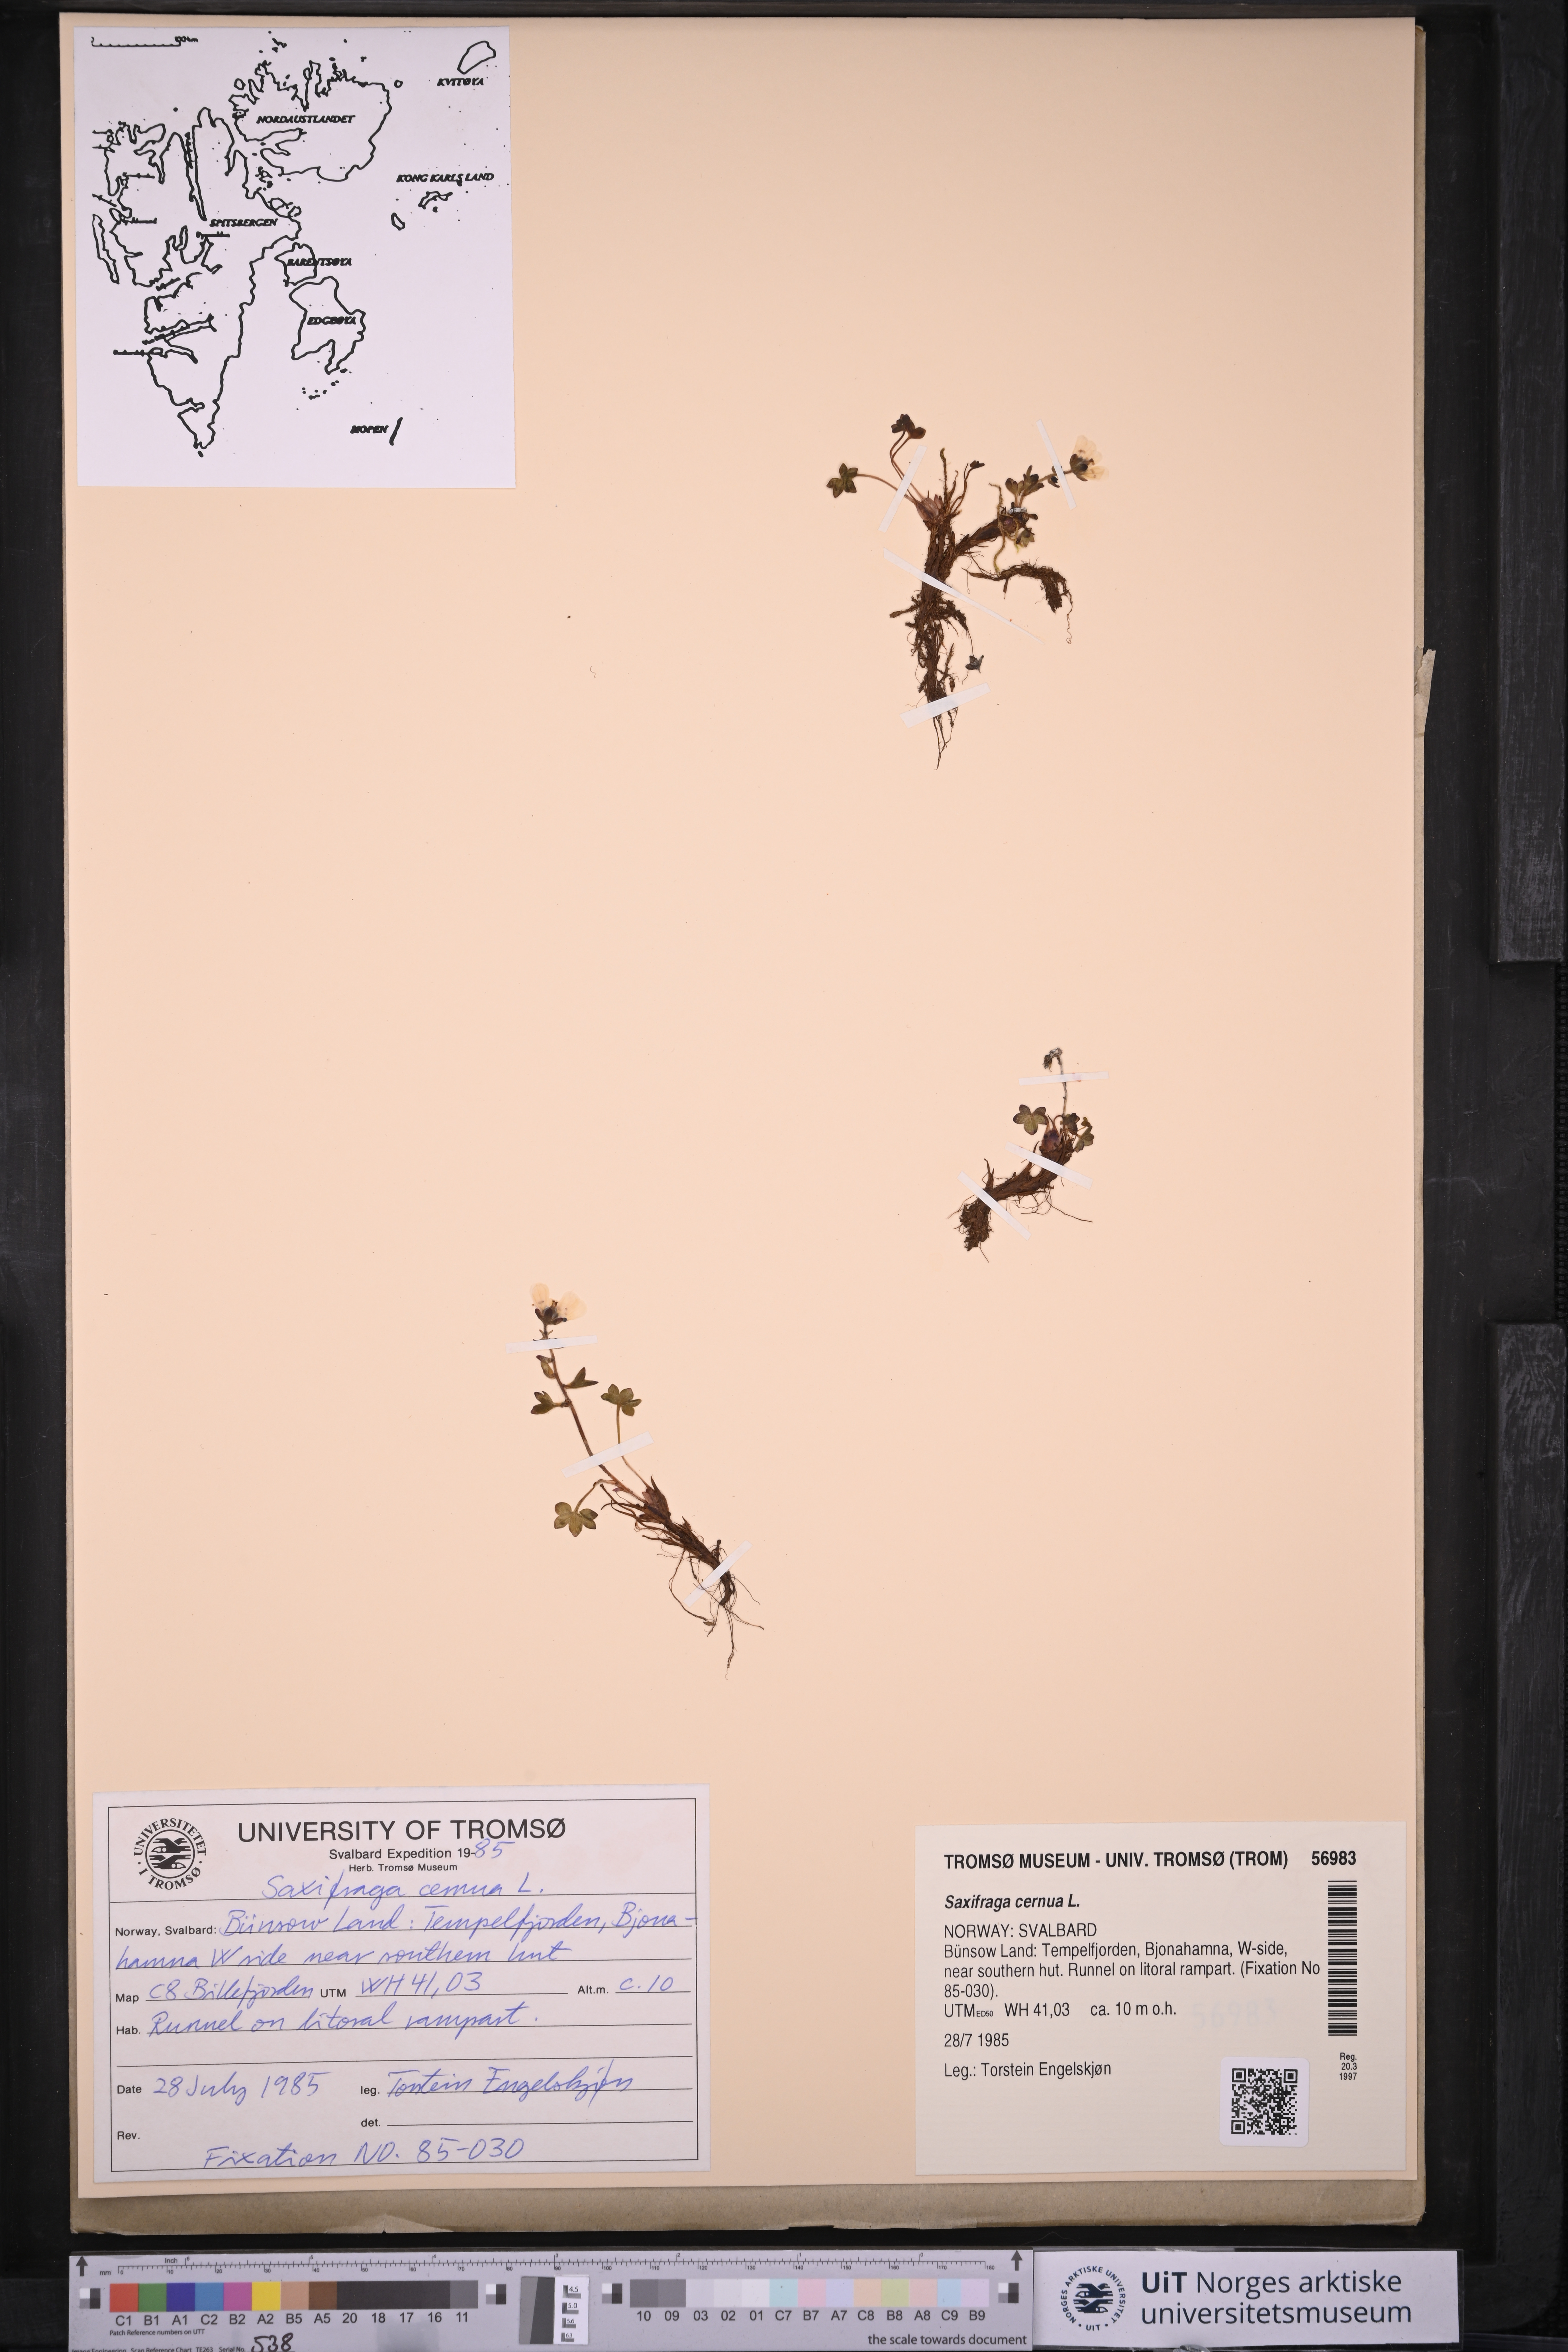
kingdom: Plantae
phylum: Tracheophyta
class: Magnoliopsida
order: Saxifragales
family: Saxifragaceae
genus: Saxifraga
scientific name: Saxifraga cernua
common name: Drooping saxifrage
